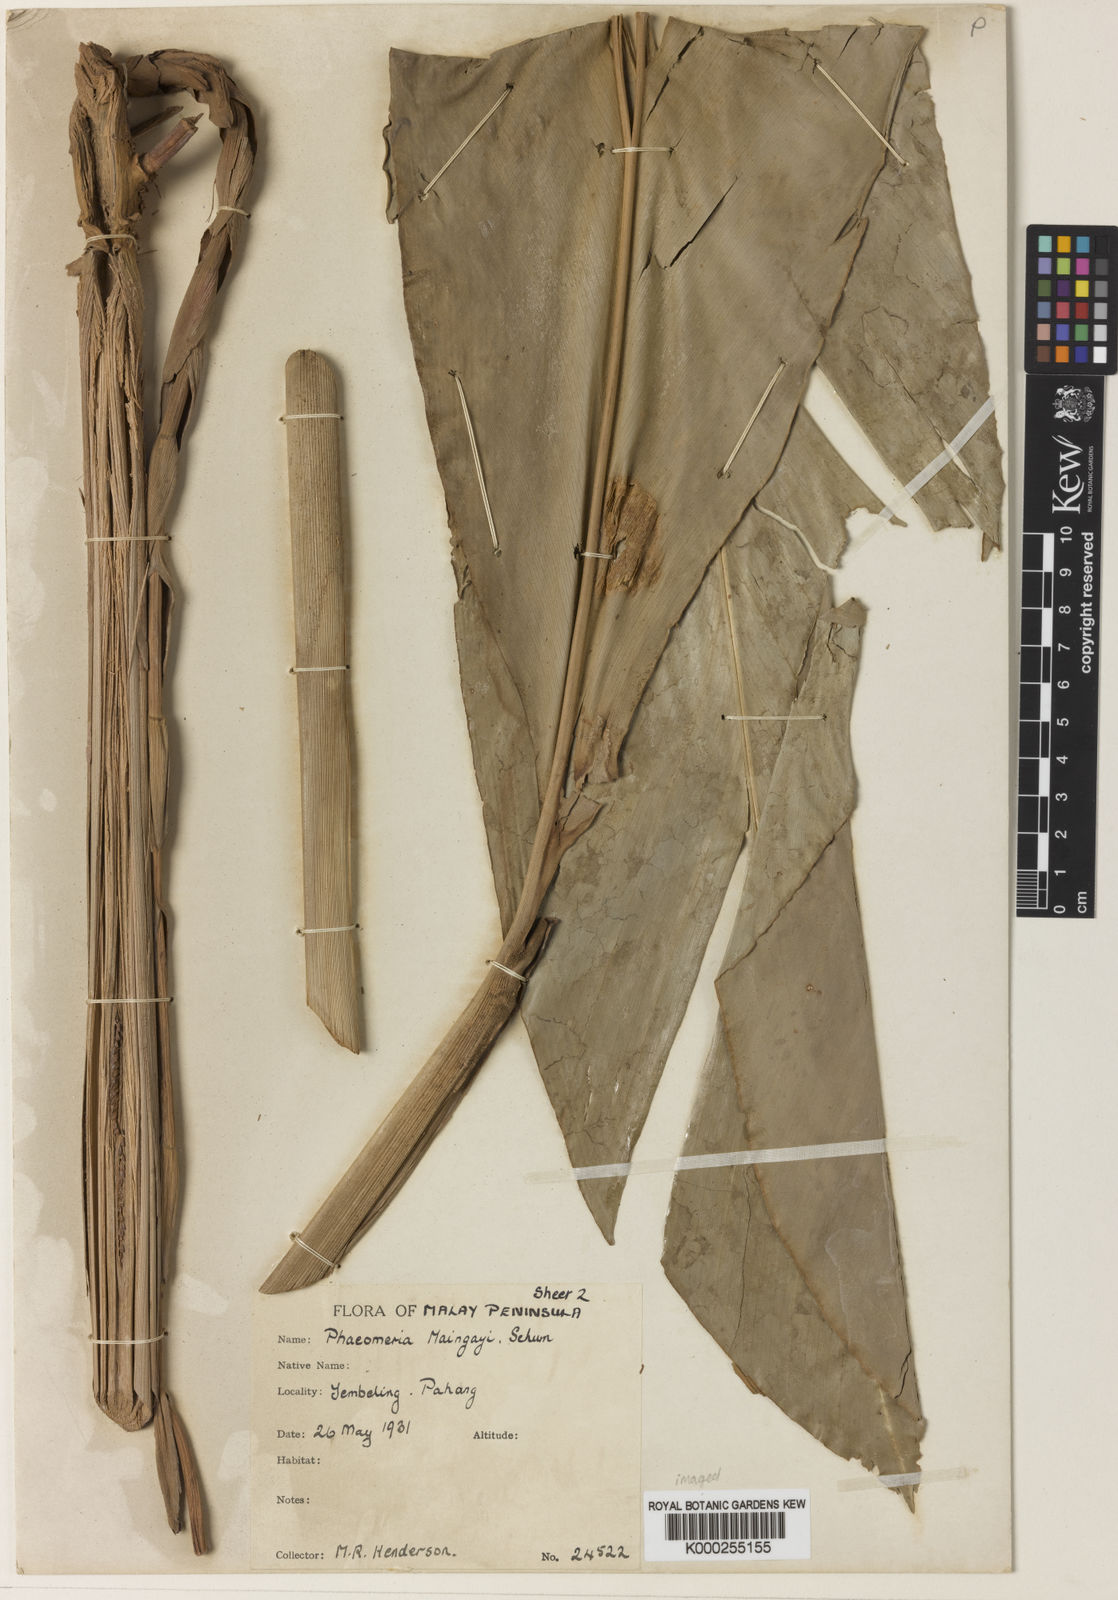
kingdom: Plantae
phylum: Tracheophyta
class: Liliopsida
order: Zingiberales
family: Zingiberaceae
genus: Etlingera
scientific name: Etlingera maingayi
